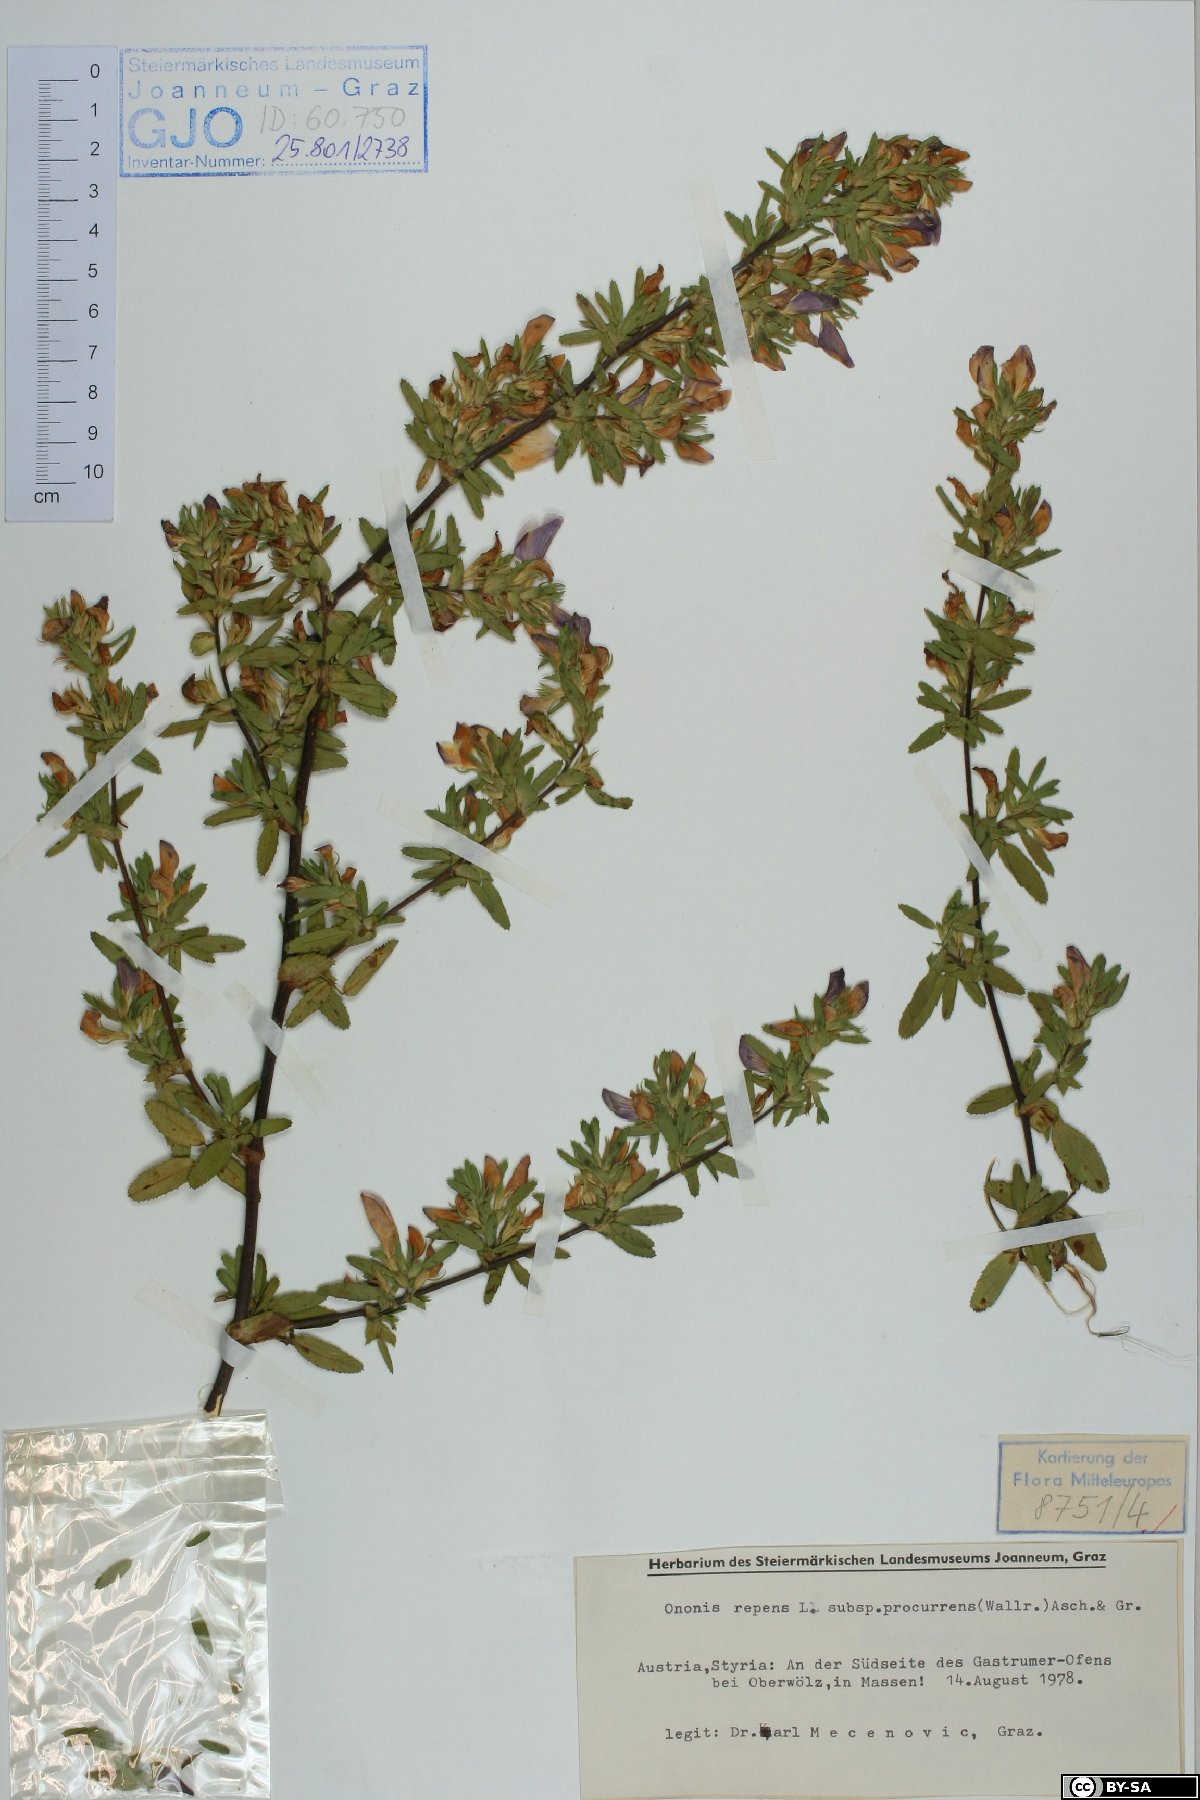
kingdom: Plantae
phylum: Tracheophyta
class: Magnoliopsida
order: Fabales
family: Fabaceae
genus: Ononis
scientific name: Ononis spinosa
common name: Spiny restharrow
